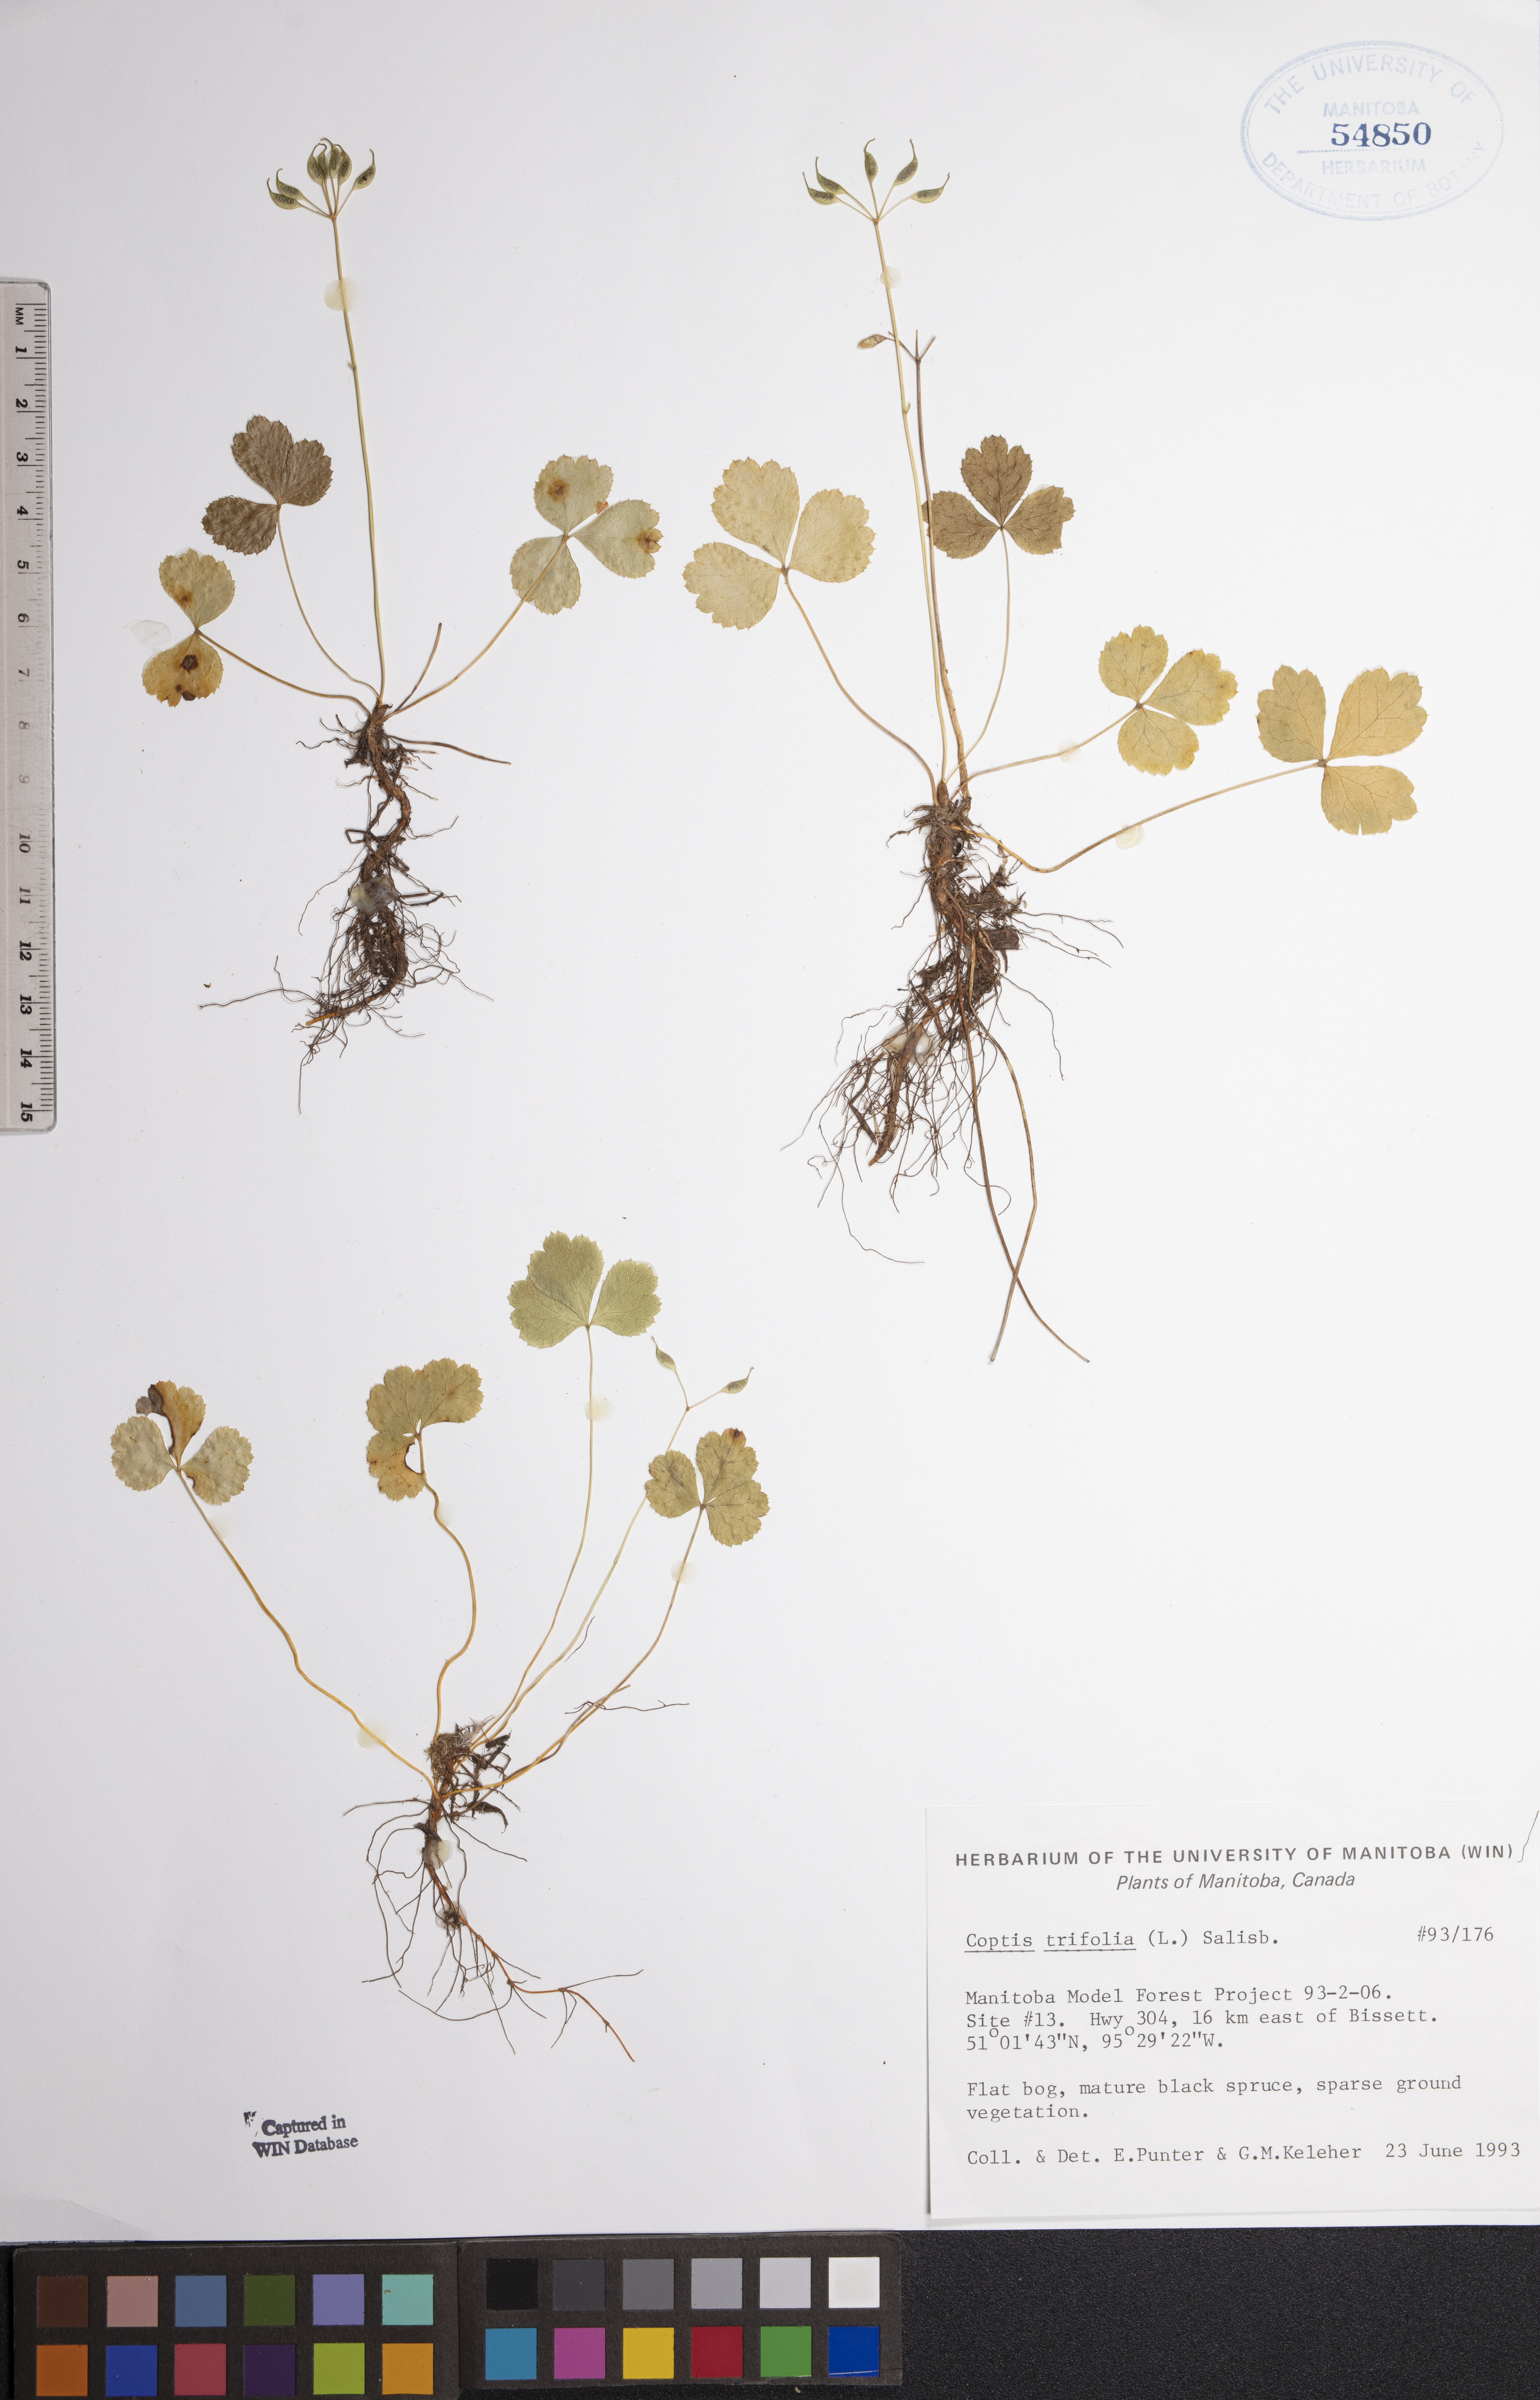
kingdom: Plantae
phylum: Tracheophyta
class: Magnoliopsida
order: Ranunculales
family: Ranunculaceae
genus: Coptis
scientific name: Coptis trifolia
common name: Canker-root
